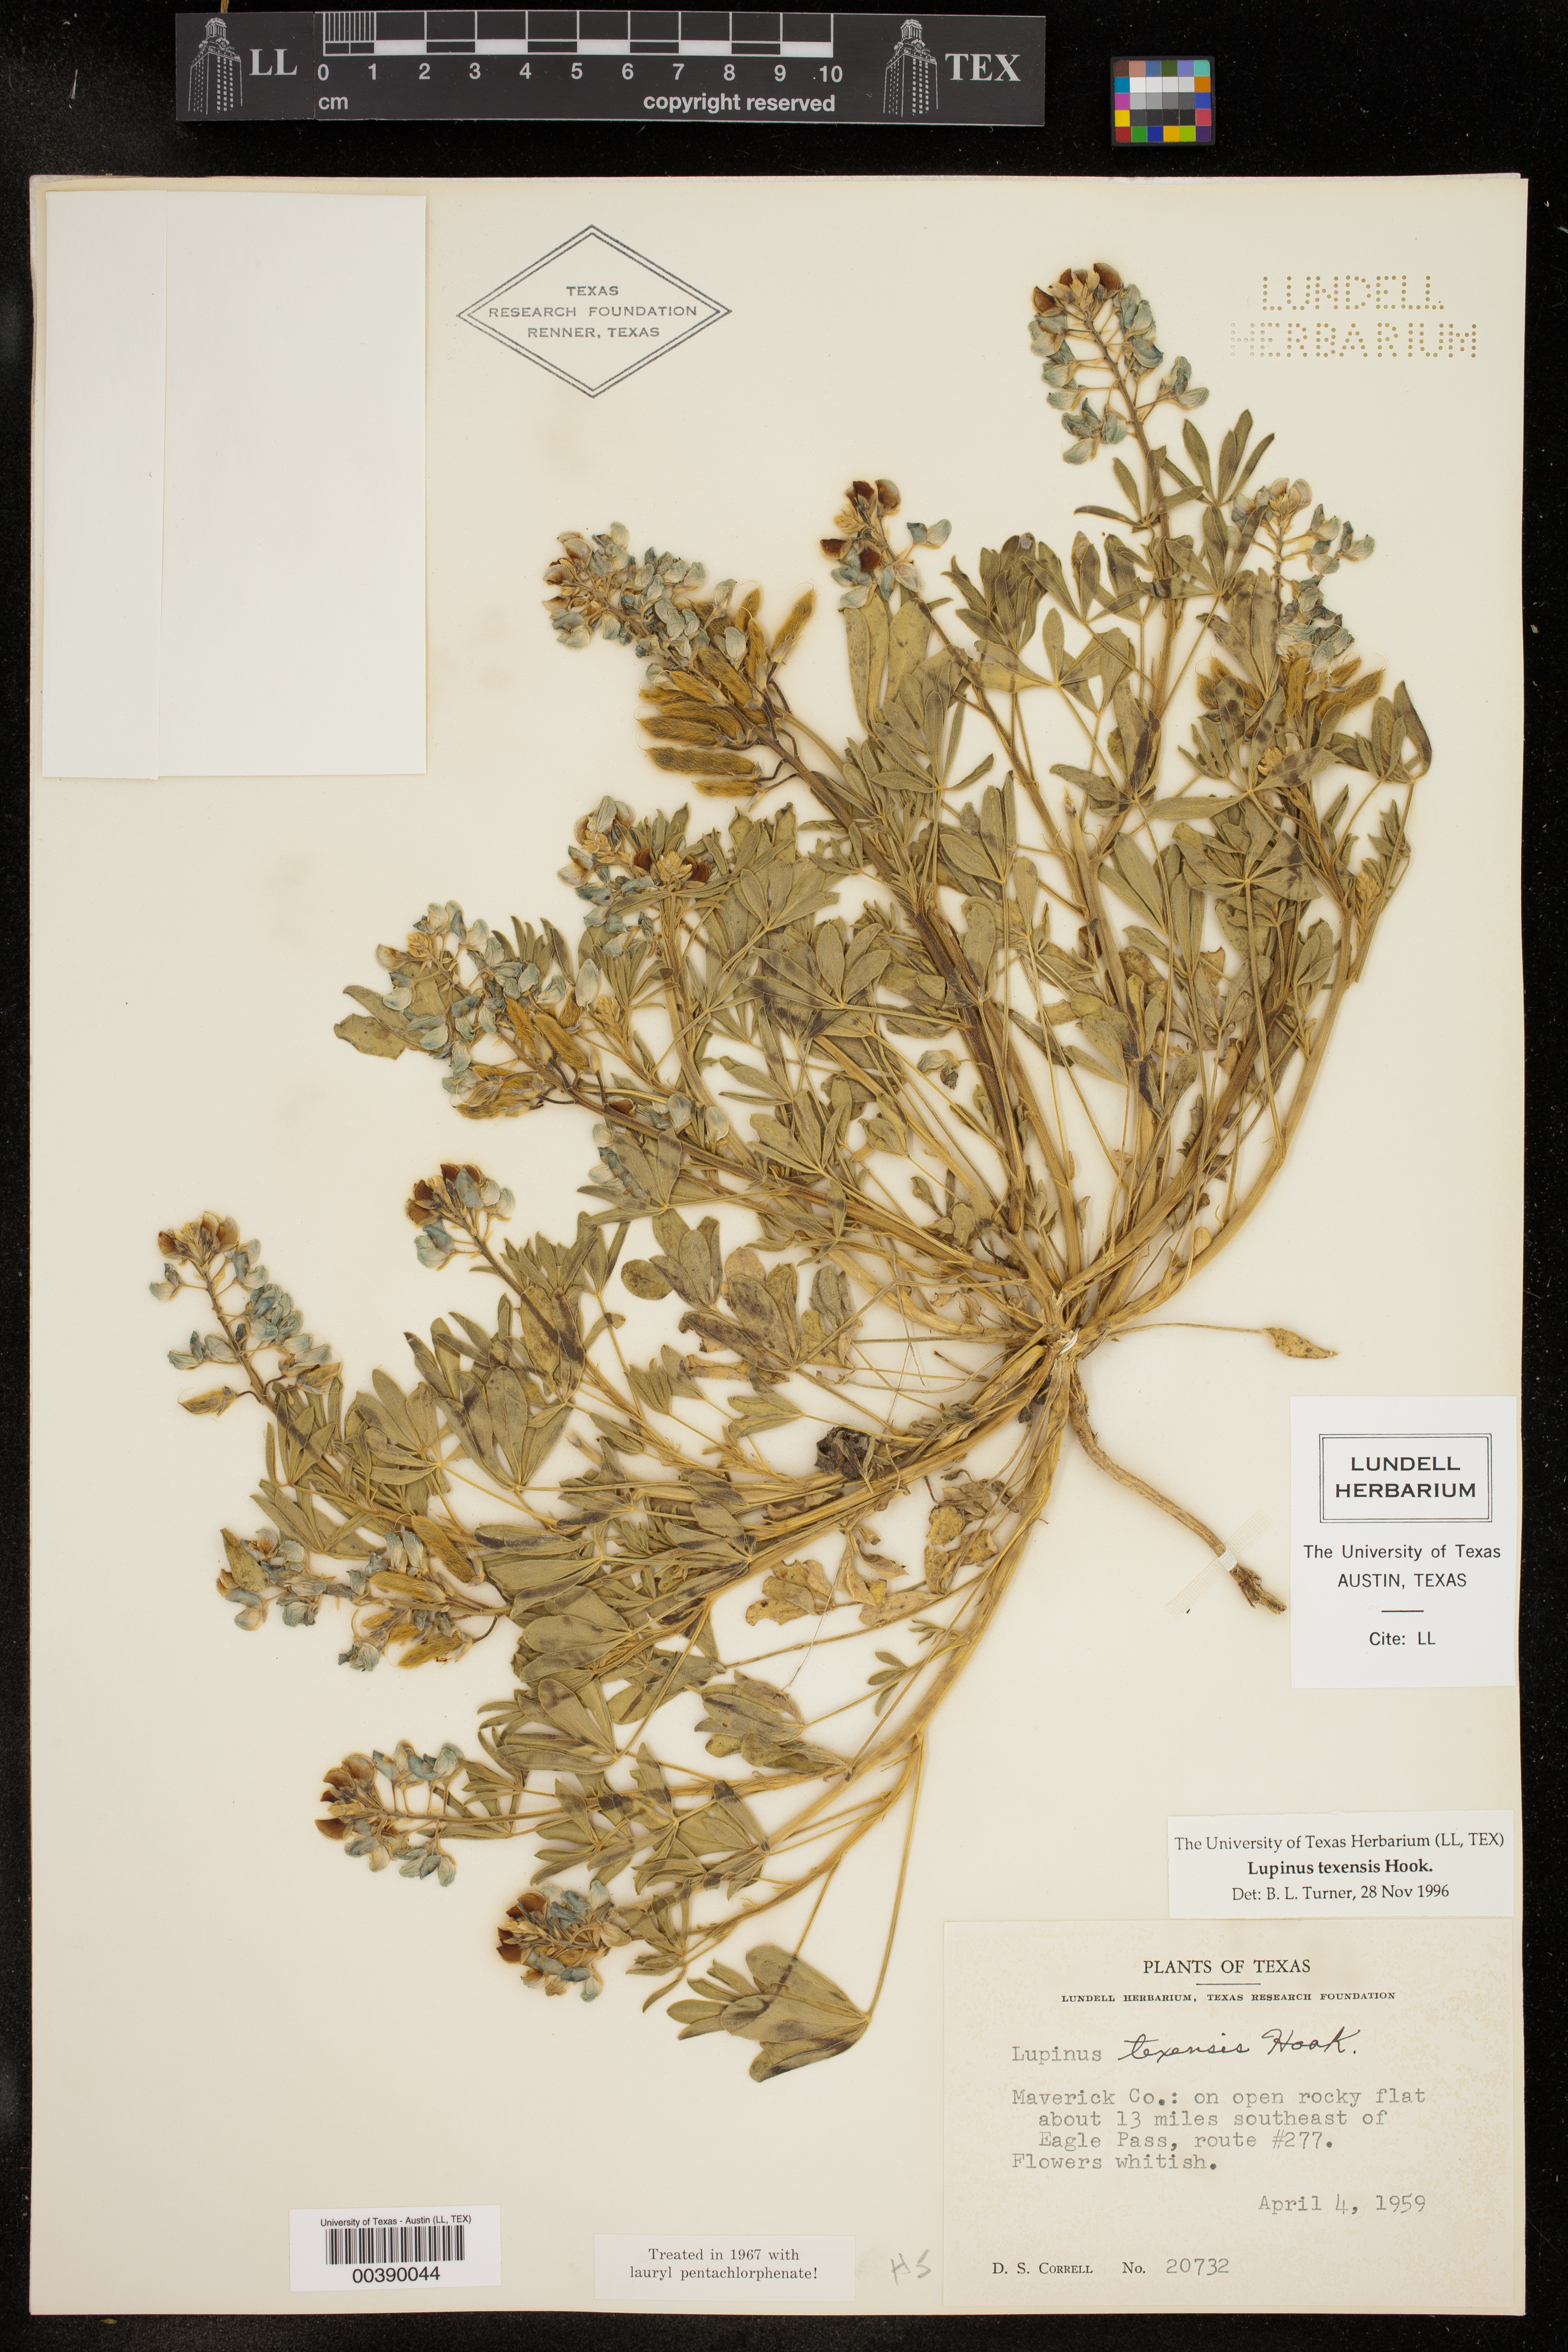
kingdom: Plantae
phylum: Tracheophyta
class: Magnoliopsida
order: Fabales
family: Fabaceae
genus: Lupinus
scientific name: Lupinus texensis
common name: Texas bluebonnet
